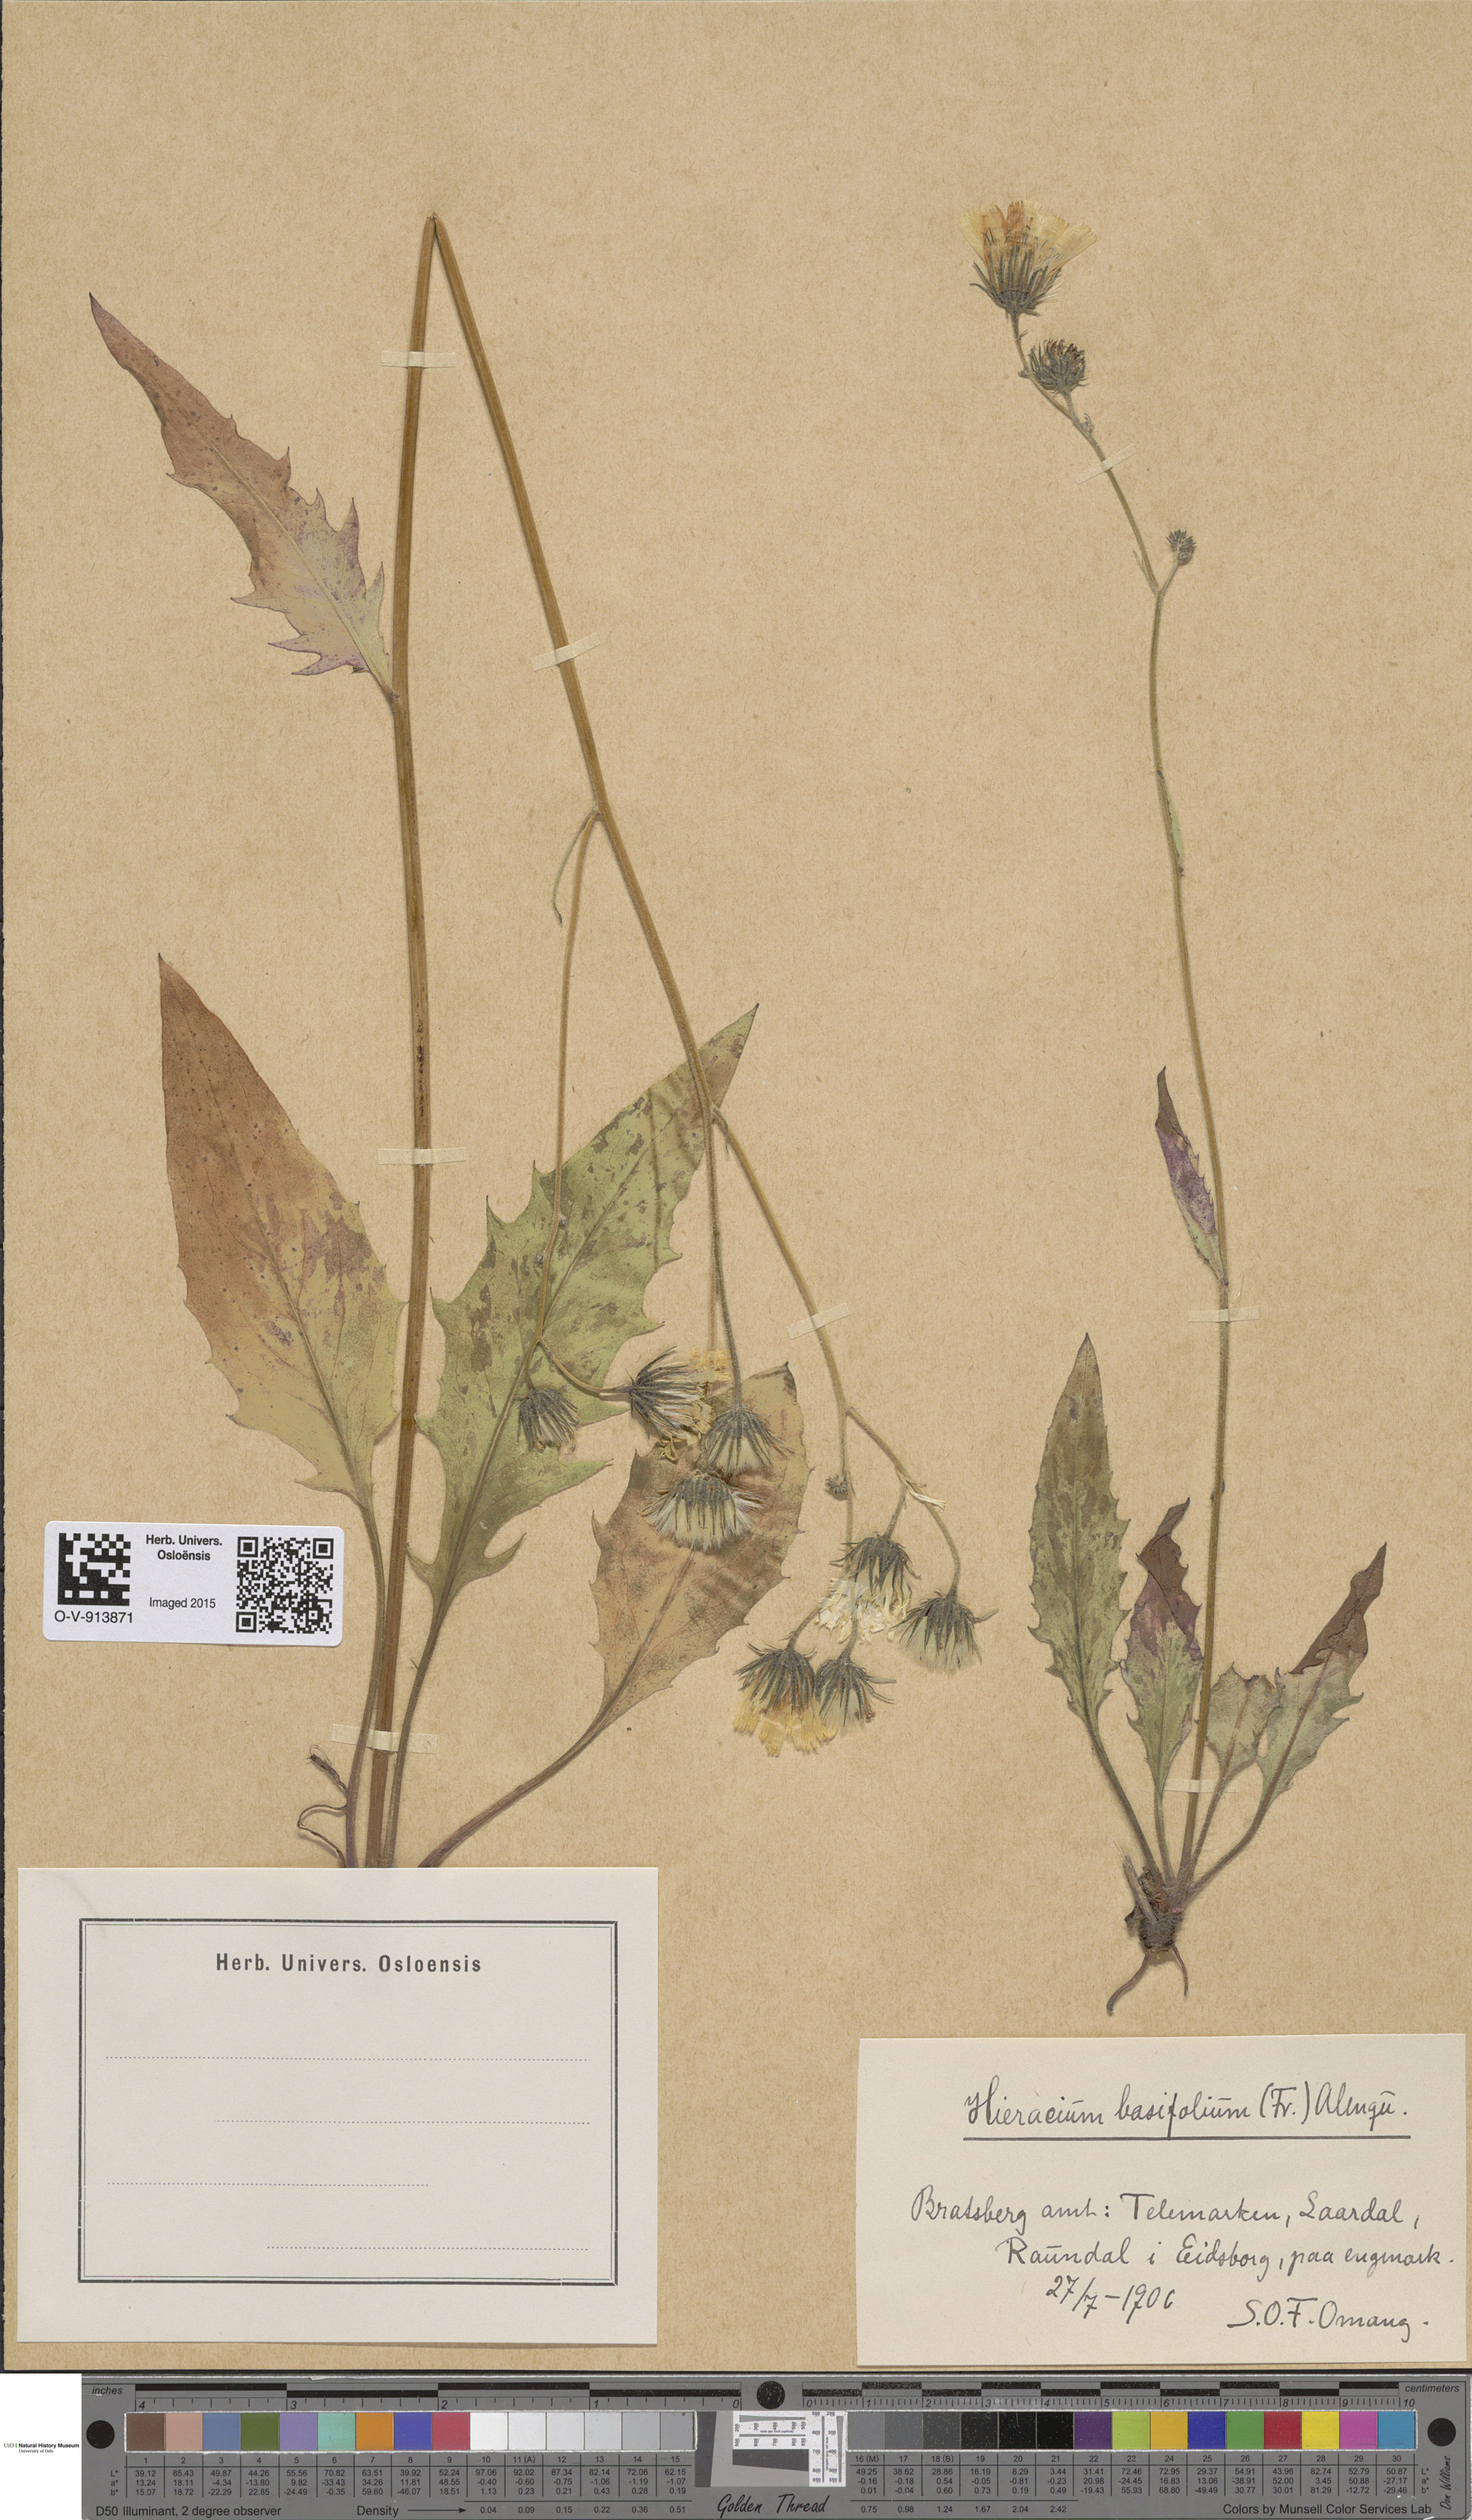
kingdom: Plantae
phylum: Tracheophyta
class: Magnoliopsida
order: Asterales
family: Asteraceae
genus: Hieracium
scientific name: Hieracium basifolium
